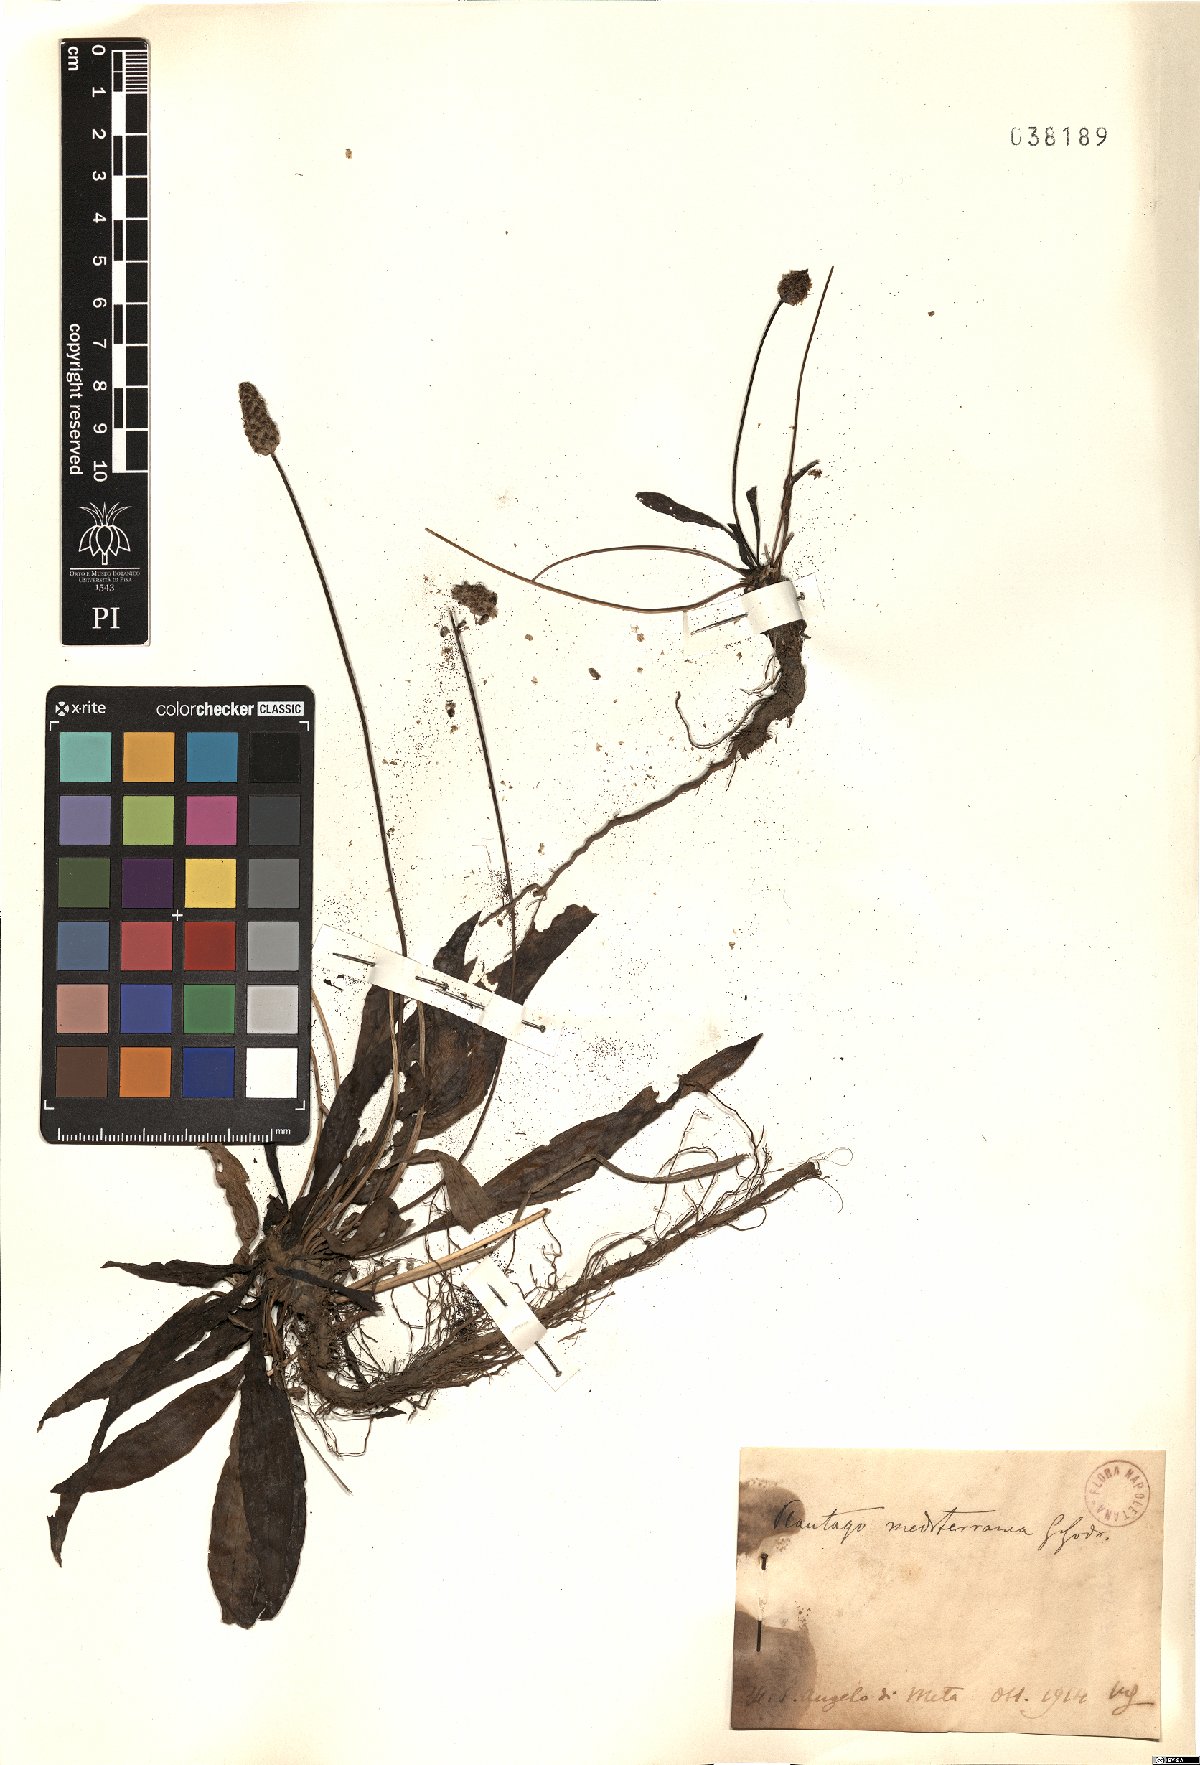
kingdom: Plantae
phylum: Tracheophyta
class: Magnoliopsida
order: Lamiales
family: Plantaginaceae
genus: Plantago
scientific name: Plantago lanceolata
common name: Ribwort plantain
